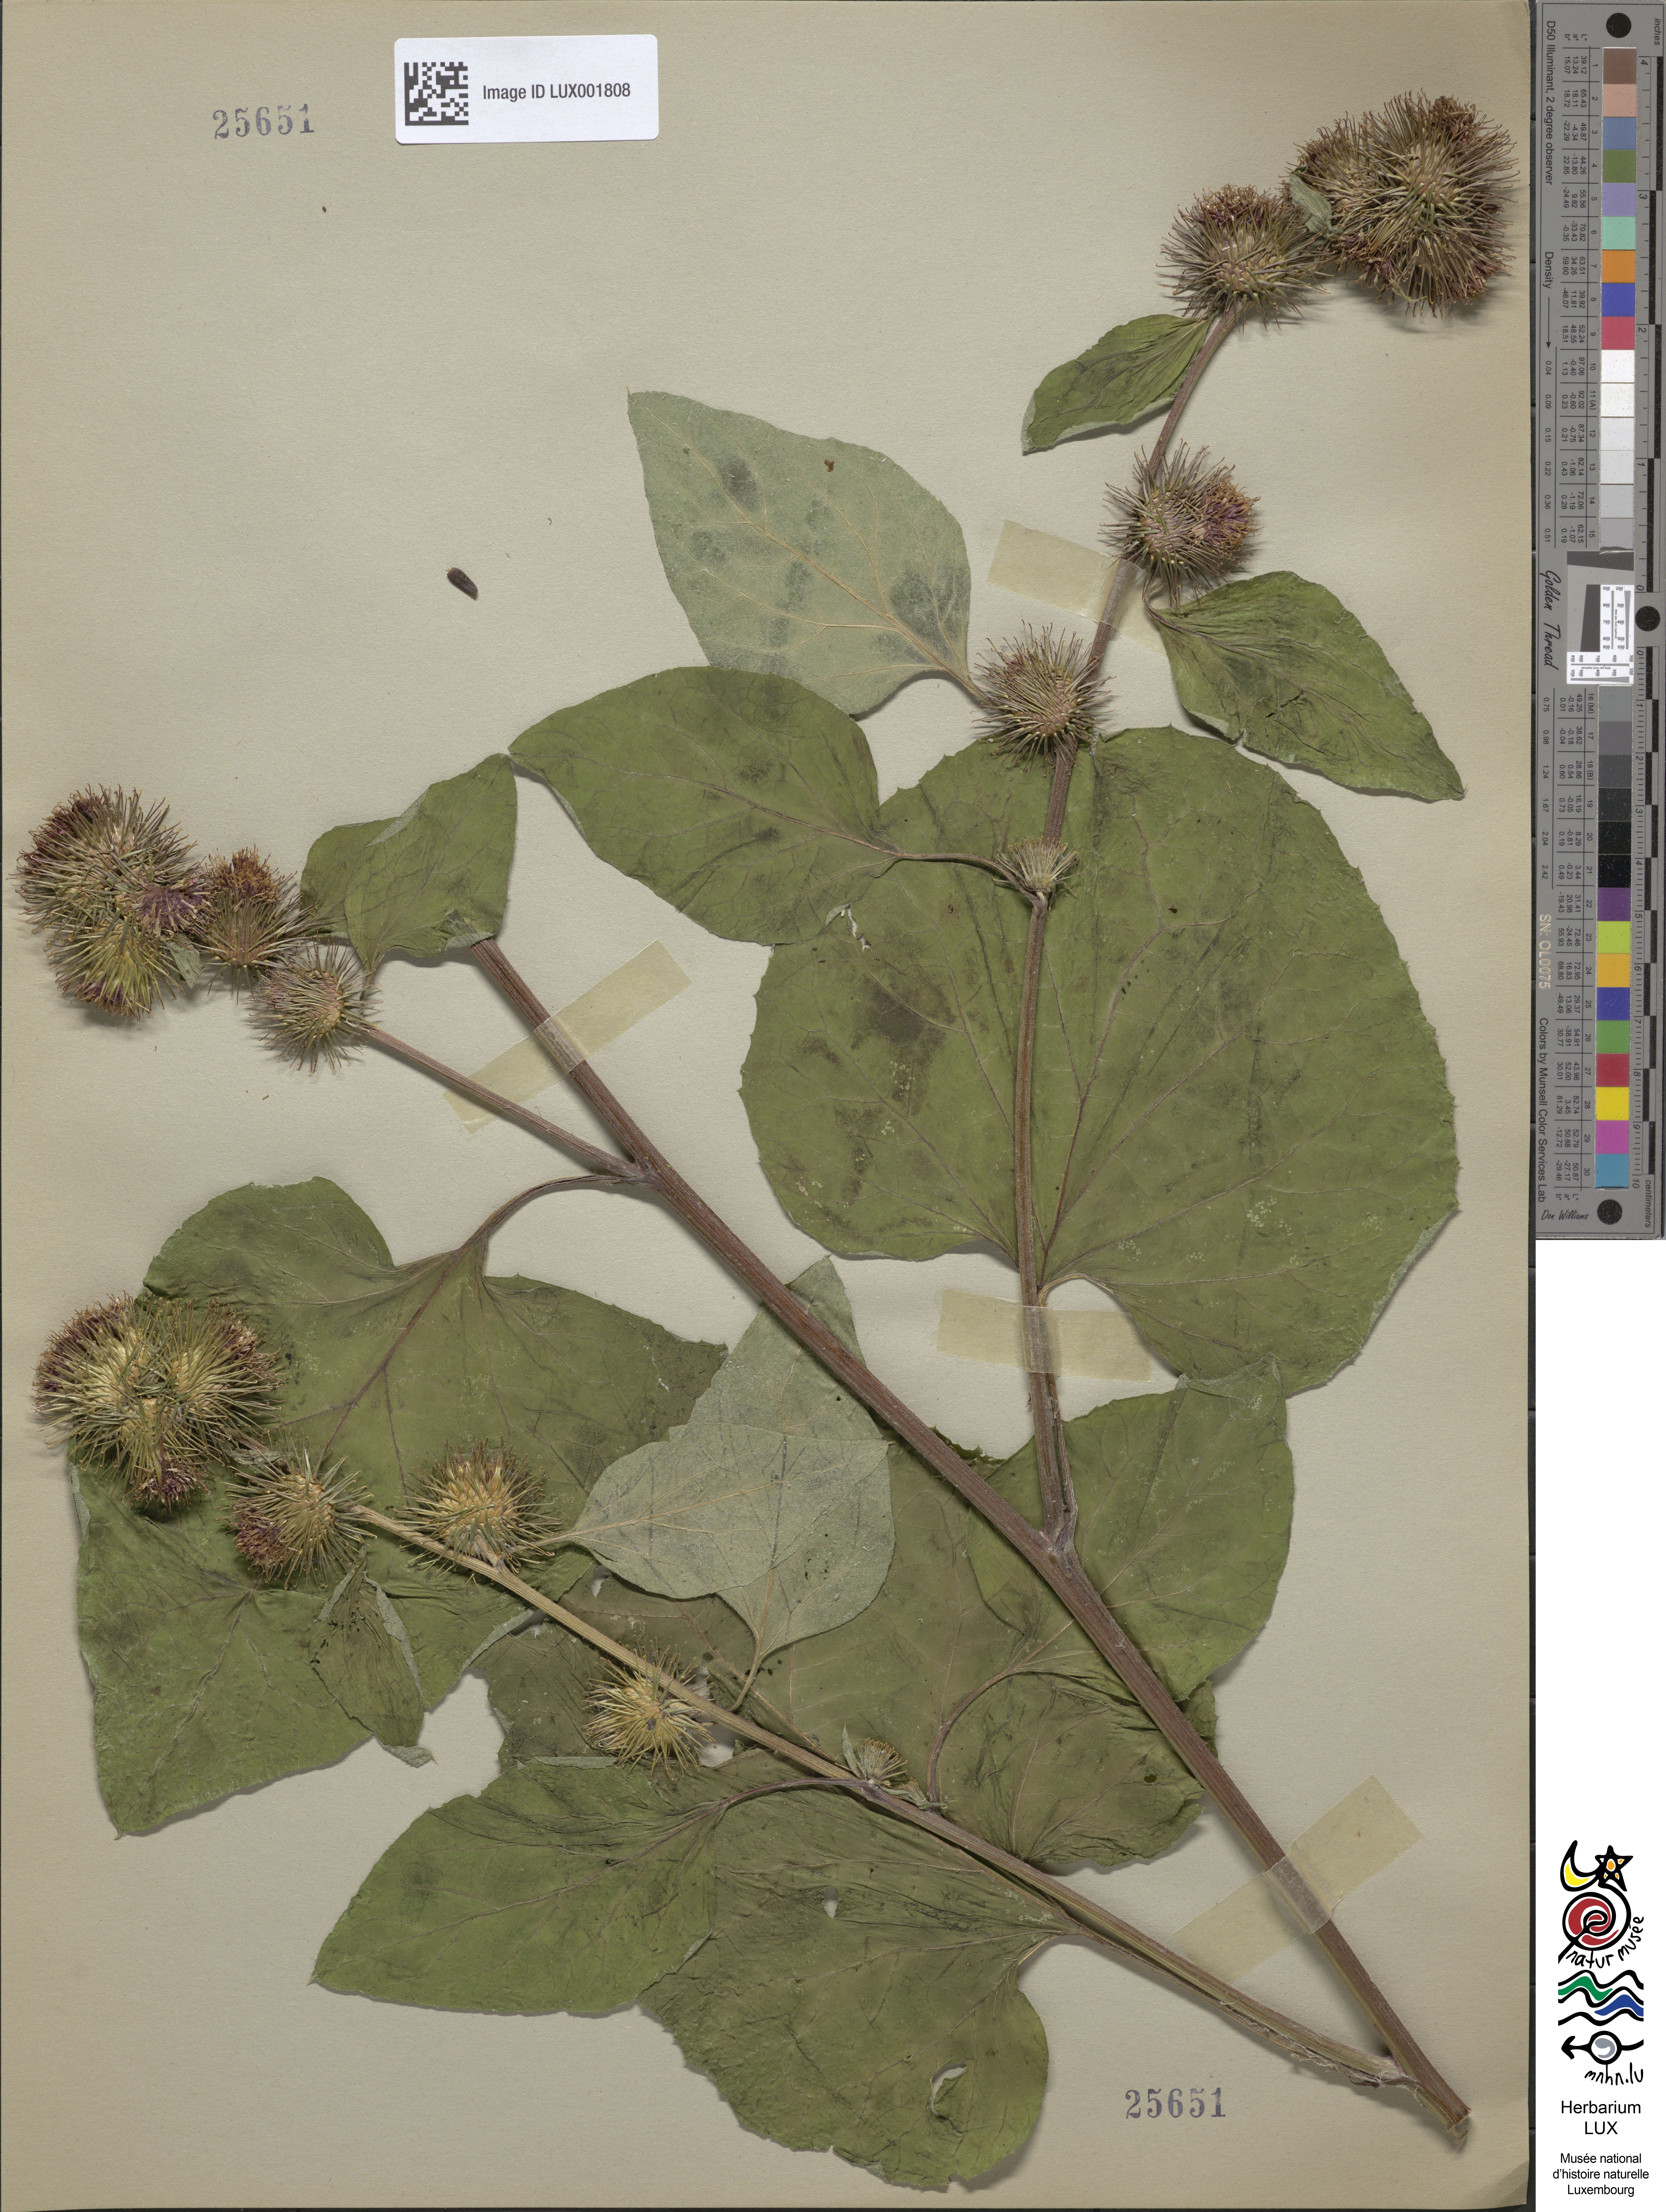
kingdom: Plantae
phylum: Tracheophyta
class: Magnoliopsida
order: Asterales
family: Asteraceae
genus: Arctium
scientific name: Arctium nemorosum
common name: Wood burdock
